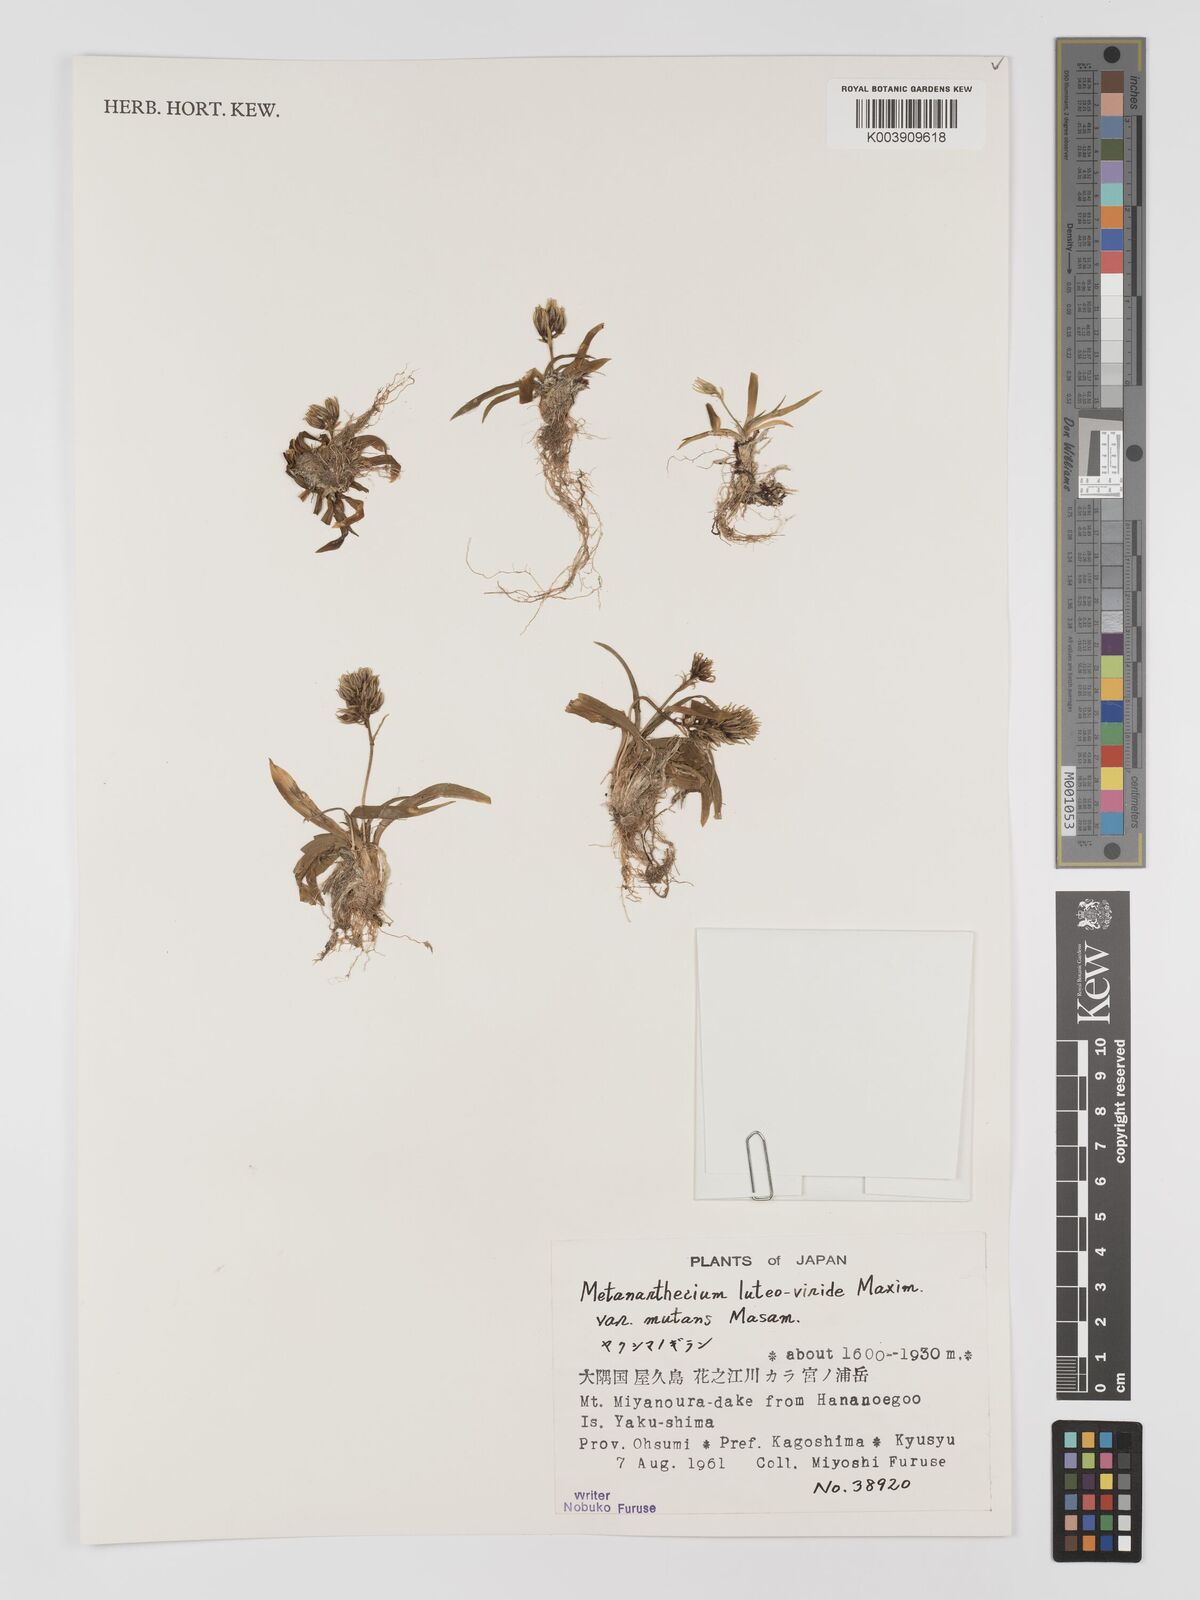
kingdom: Plantae
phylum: Tracheophyta
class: Liliopsida
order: Dioscoreales
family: Nartheciaceae
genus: Metanarthecium
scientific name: Metanarthecium luteoviride
